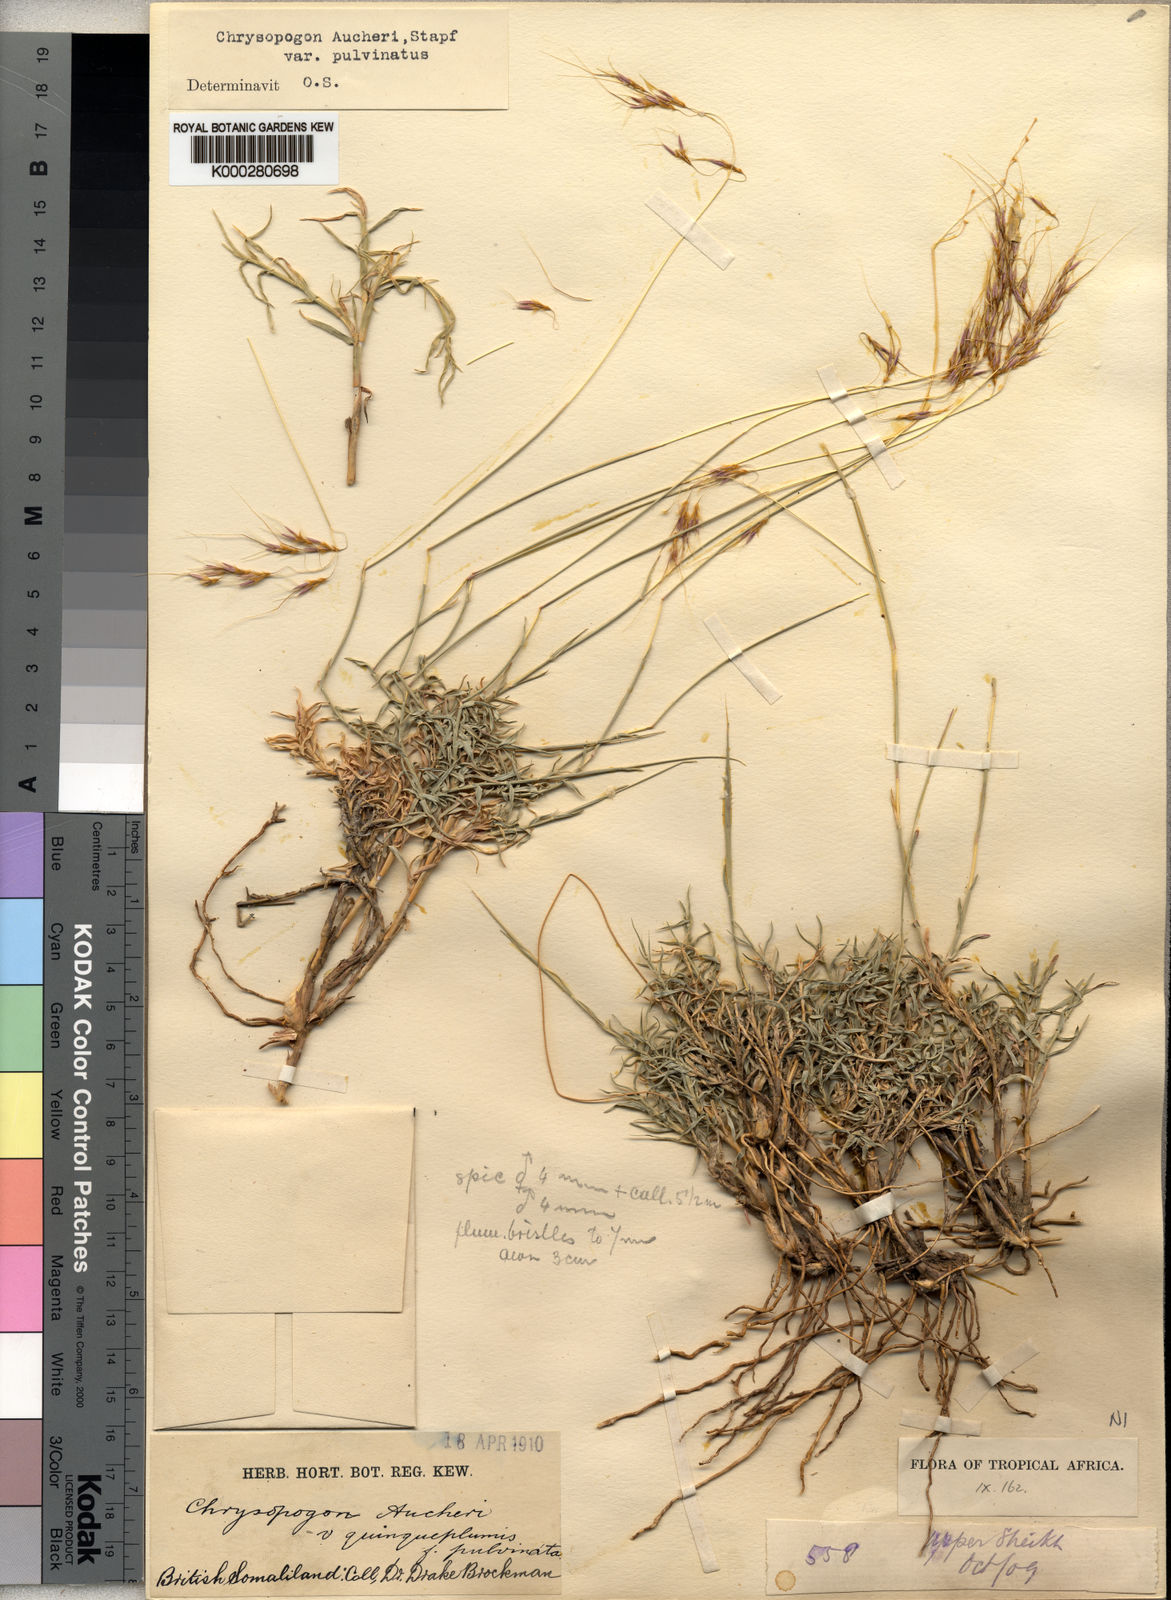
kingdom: Plantae
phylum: Tracheophyta
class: Liliopsida
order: Poales
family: Poaceae
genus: Chrysopogon
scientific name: Chrysopogon plumulosus
